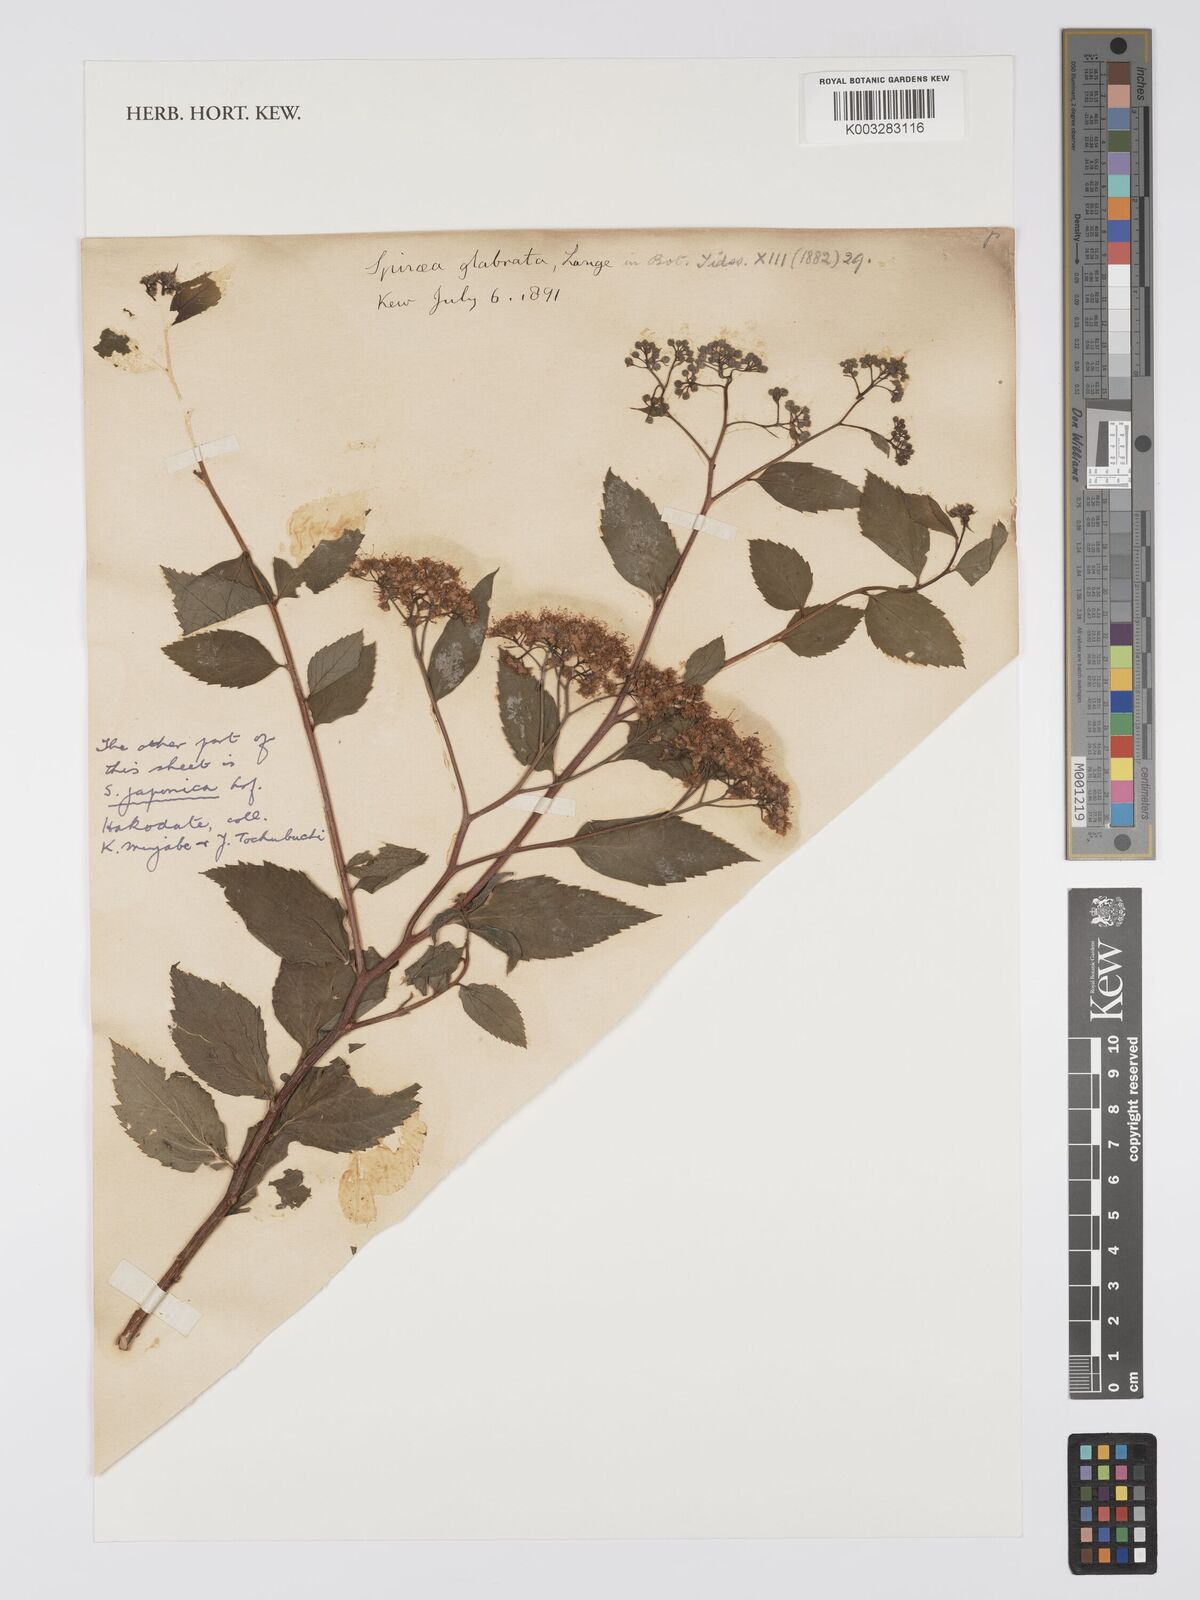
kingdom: Plantae
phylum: Tracheophyta
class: Magnoliopsida
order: Rosales
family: Rosaceae
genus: Spiraea
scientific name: Spiraea japonica
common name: Japanese spiraea
